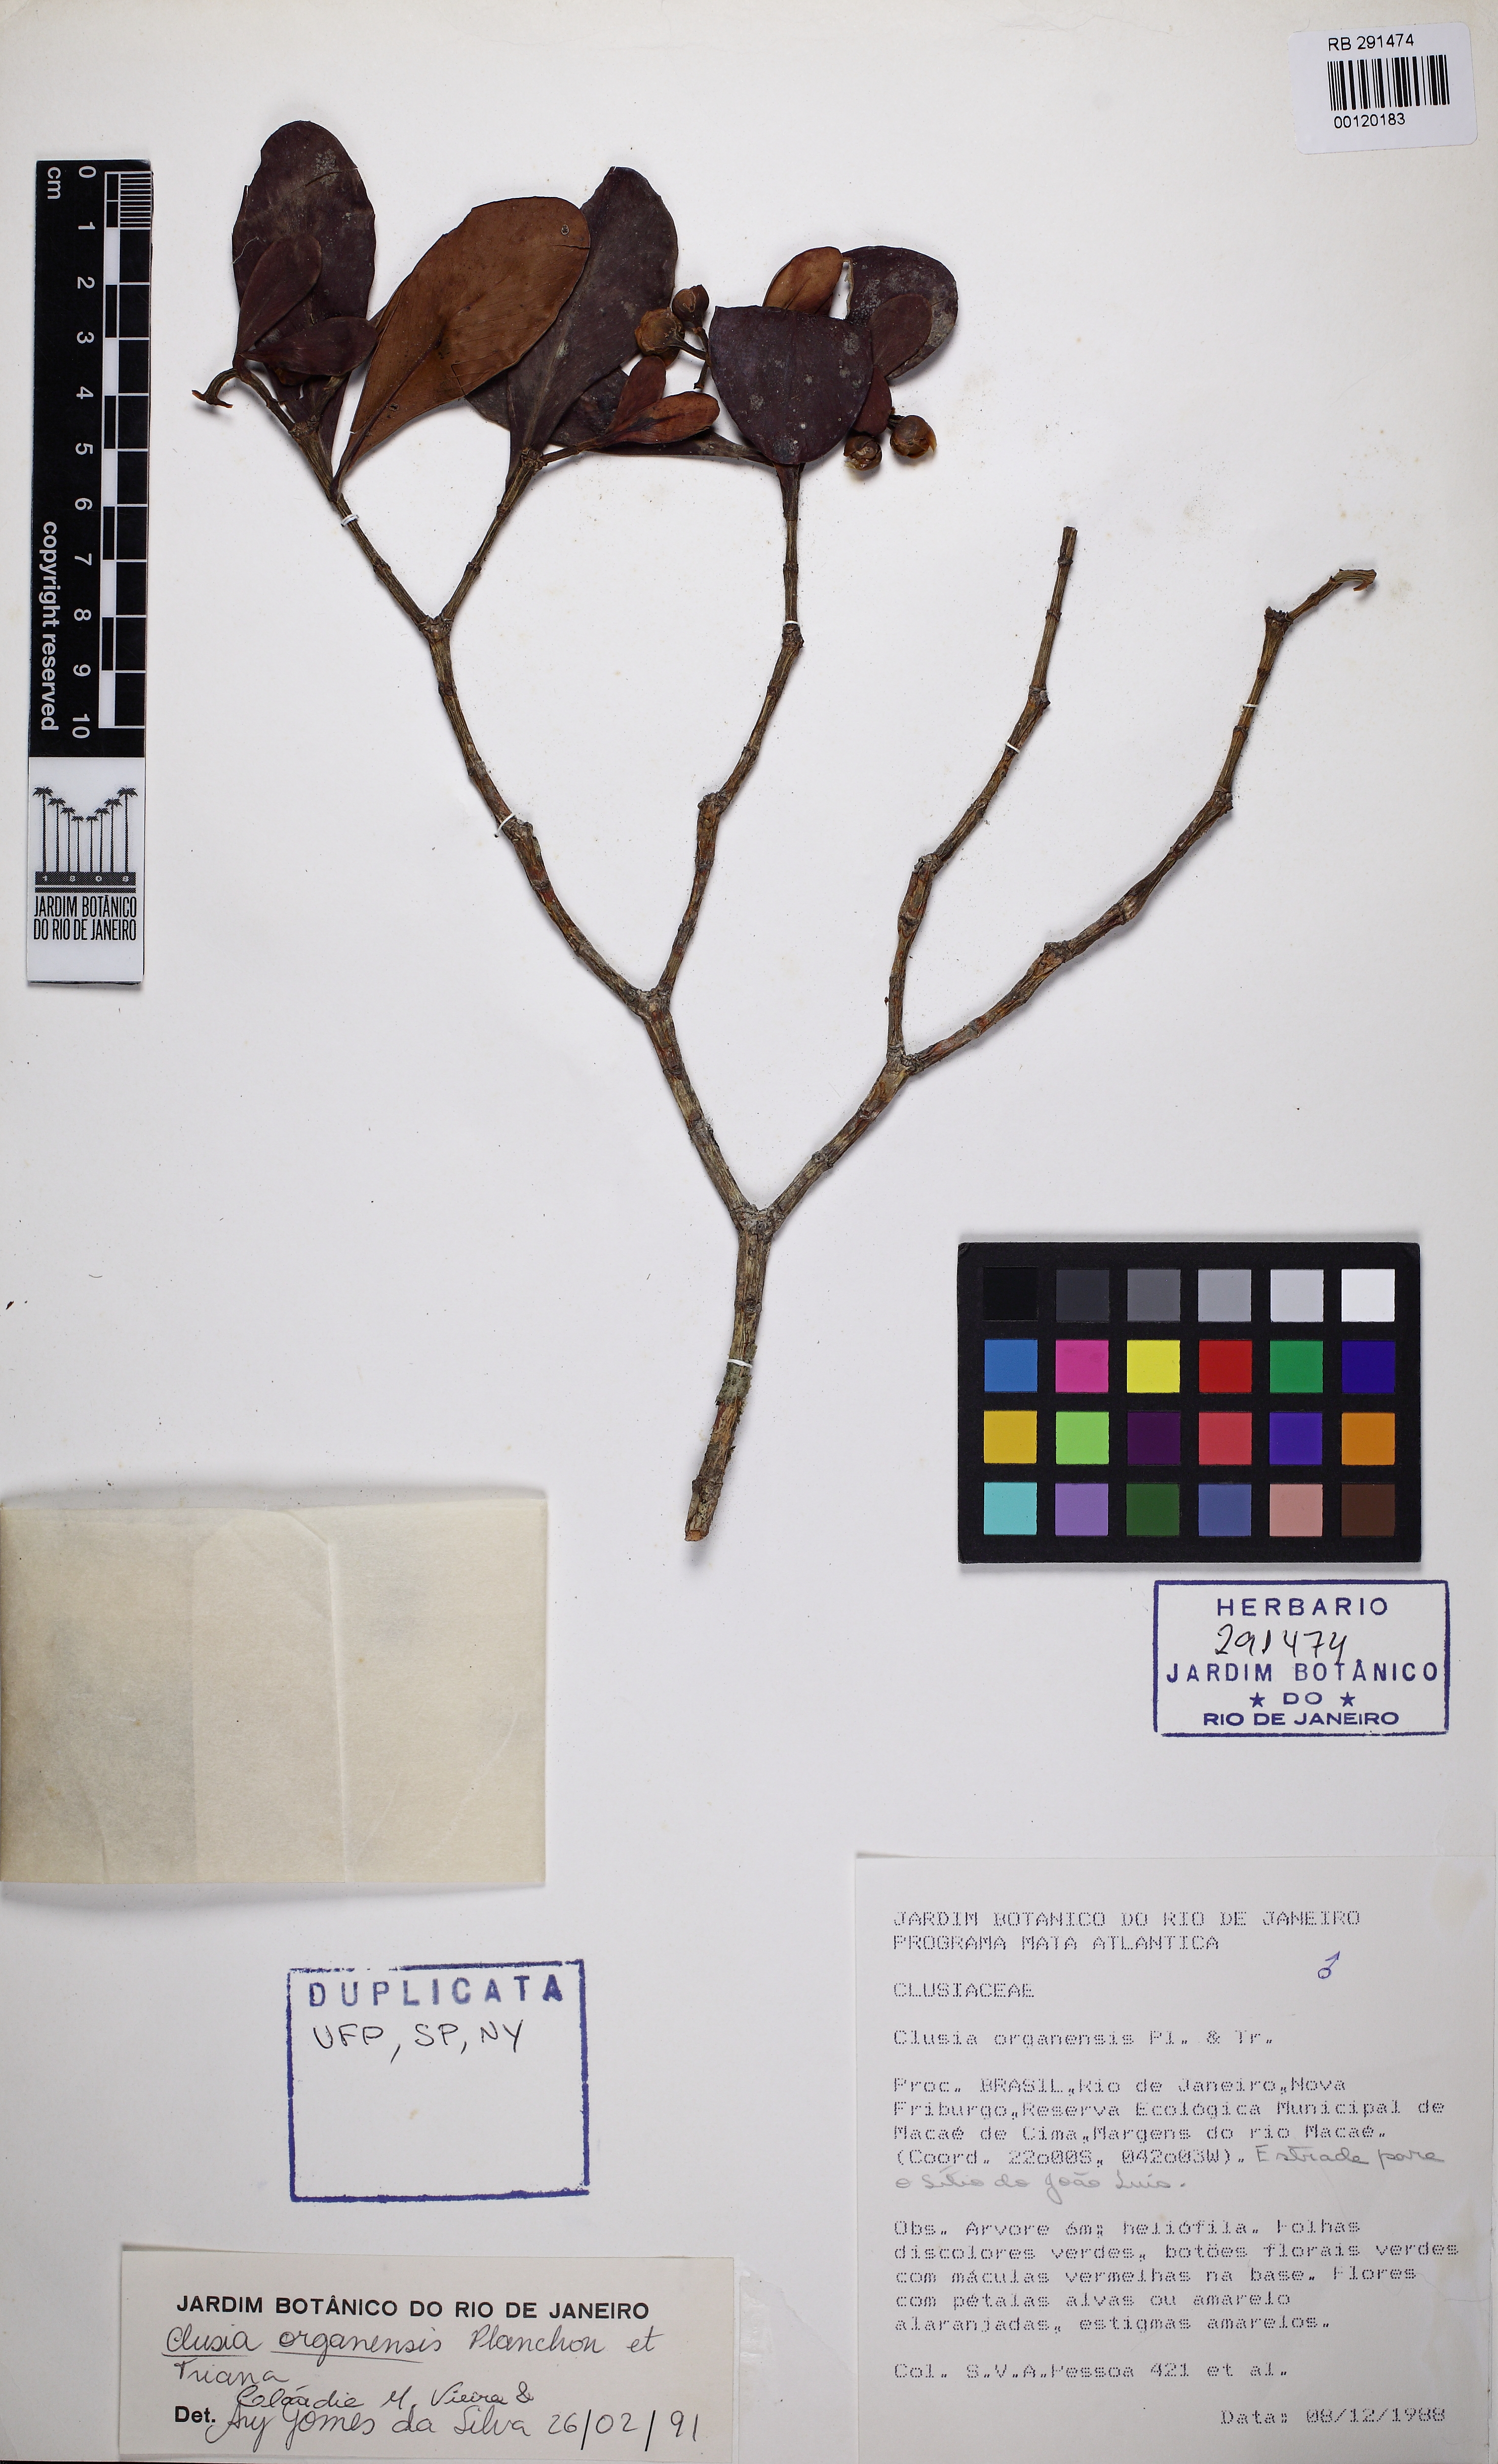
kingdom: Plantae
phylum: Tracheophyta
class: Magnoliopsida
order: Malpighiales
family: Clusiaceae
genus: Clusia
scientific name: Clusia organensis
